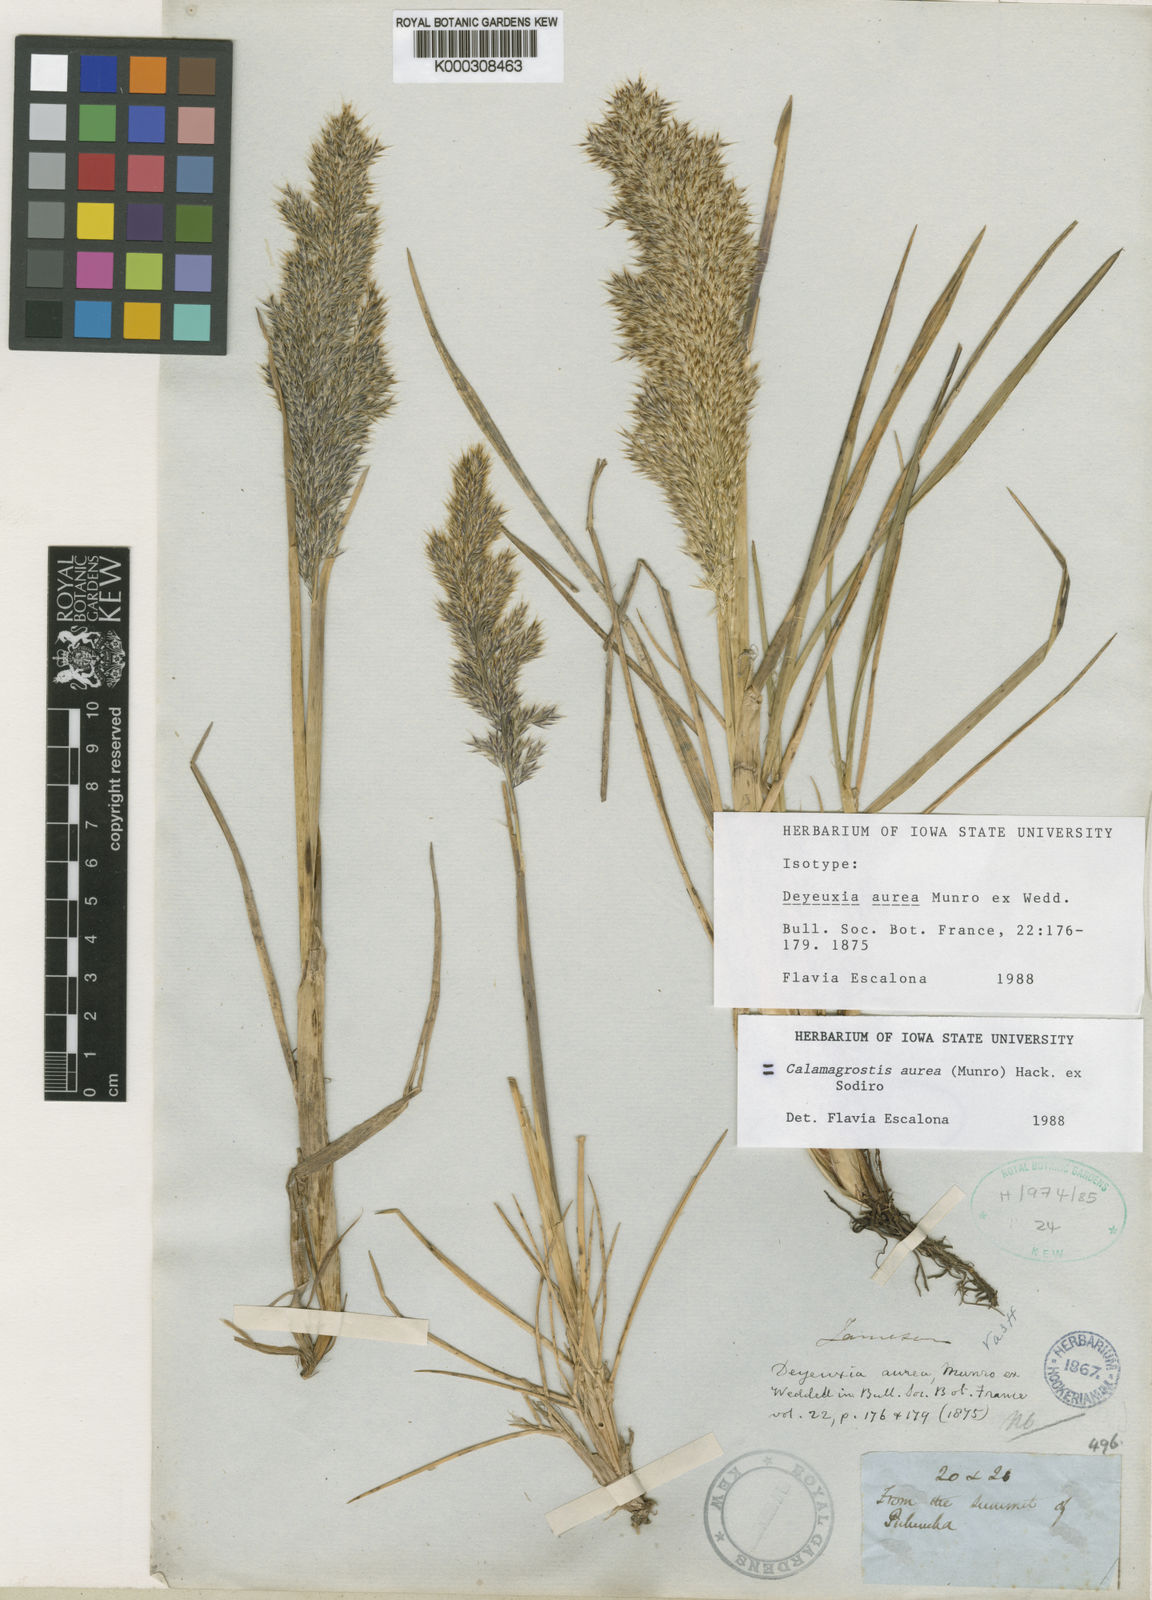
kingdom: Plantae
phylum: Tracheophyta
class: Liliopsida
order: Poales
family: Poaceae
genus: Deschampsia
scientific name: Deschampsia aurea
